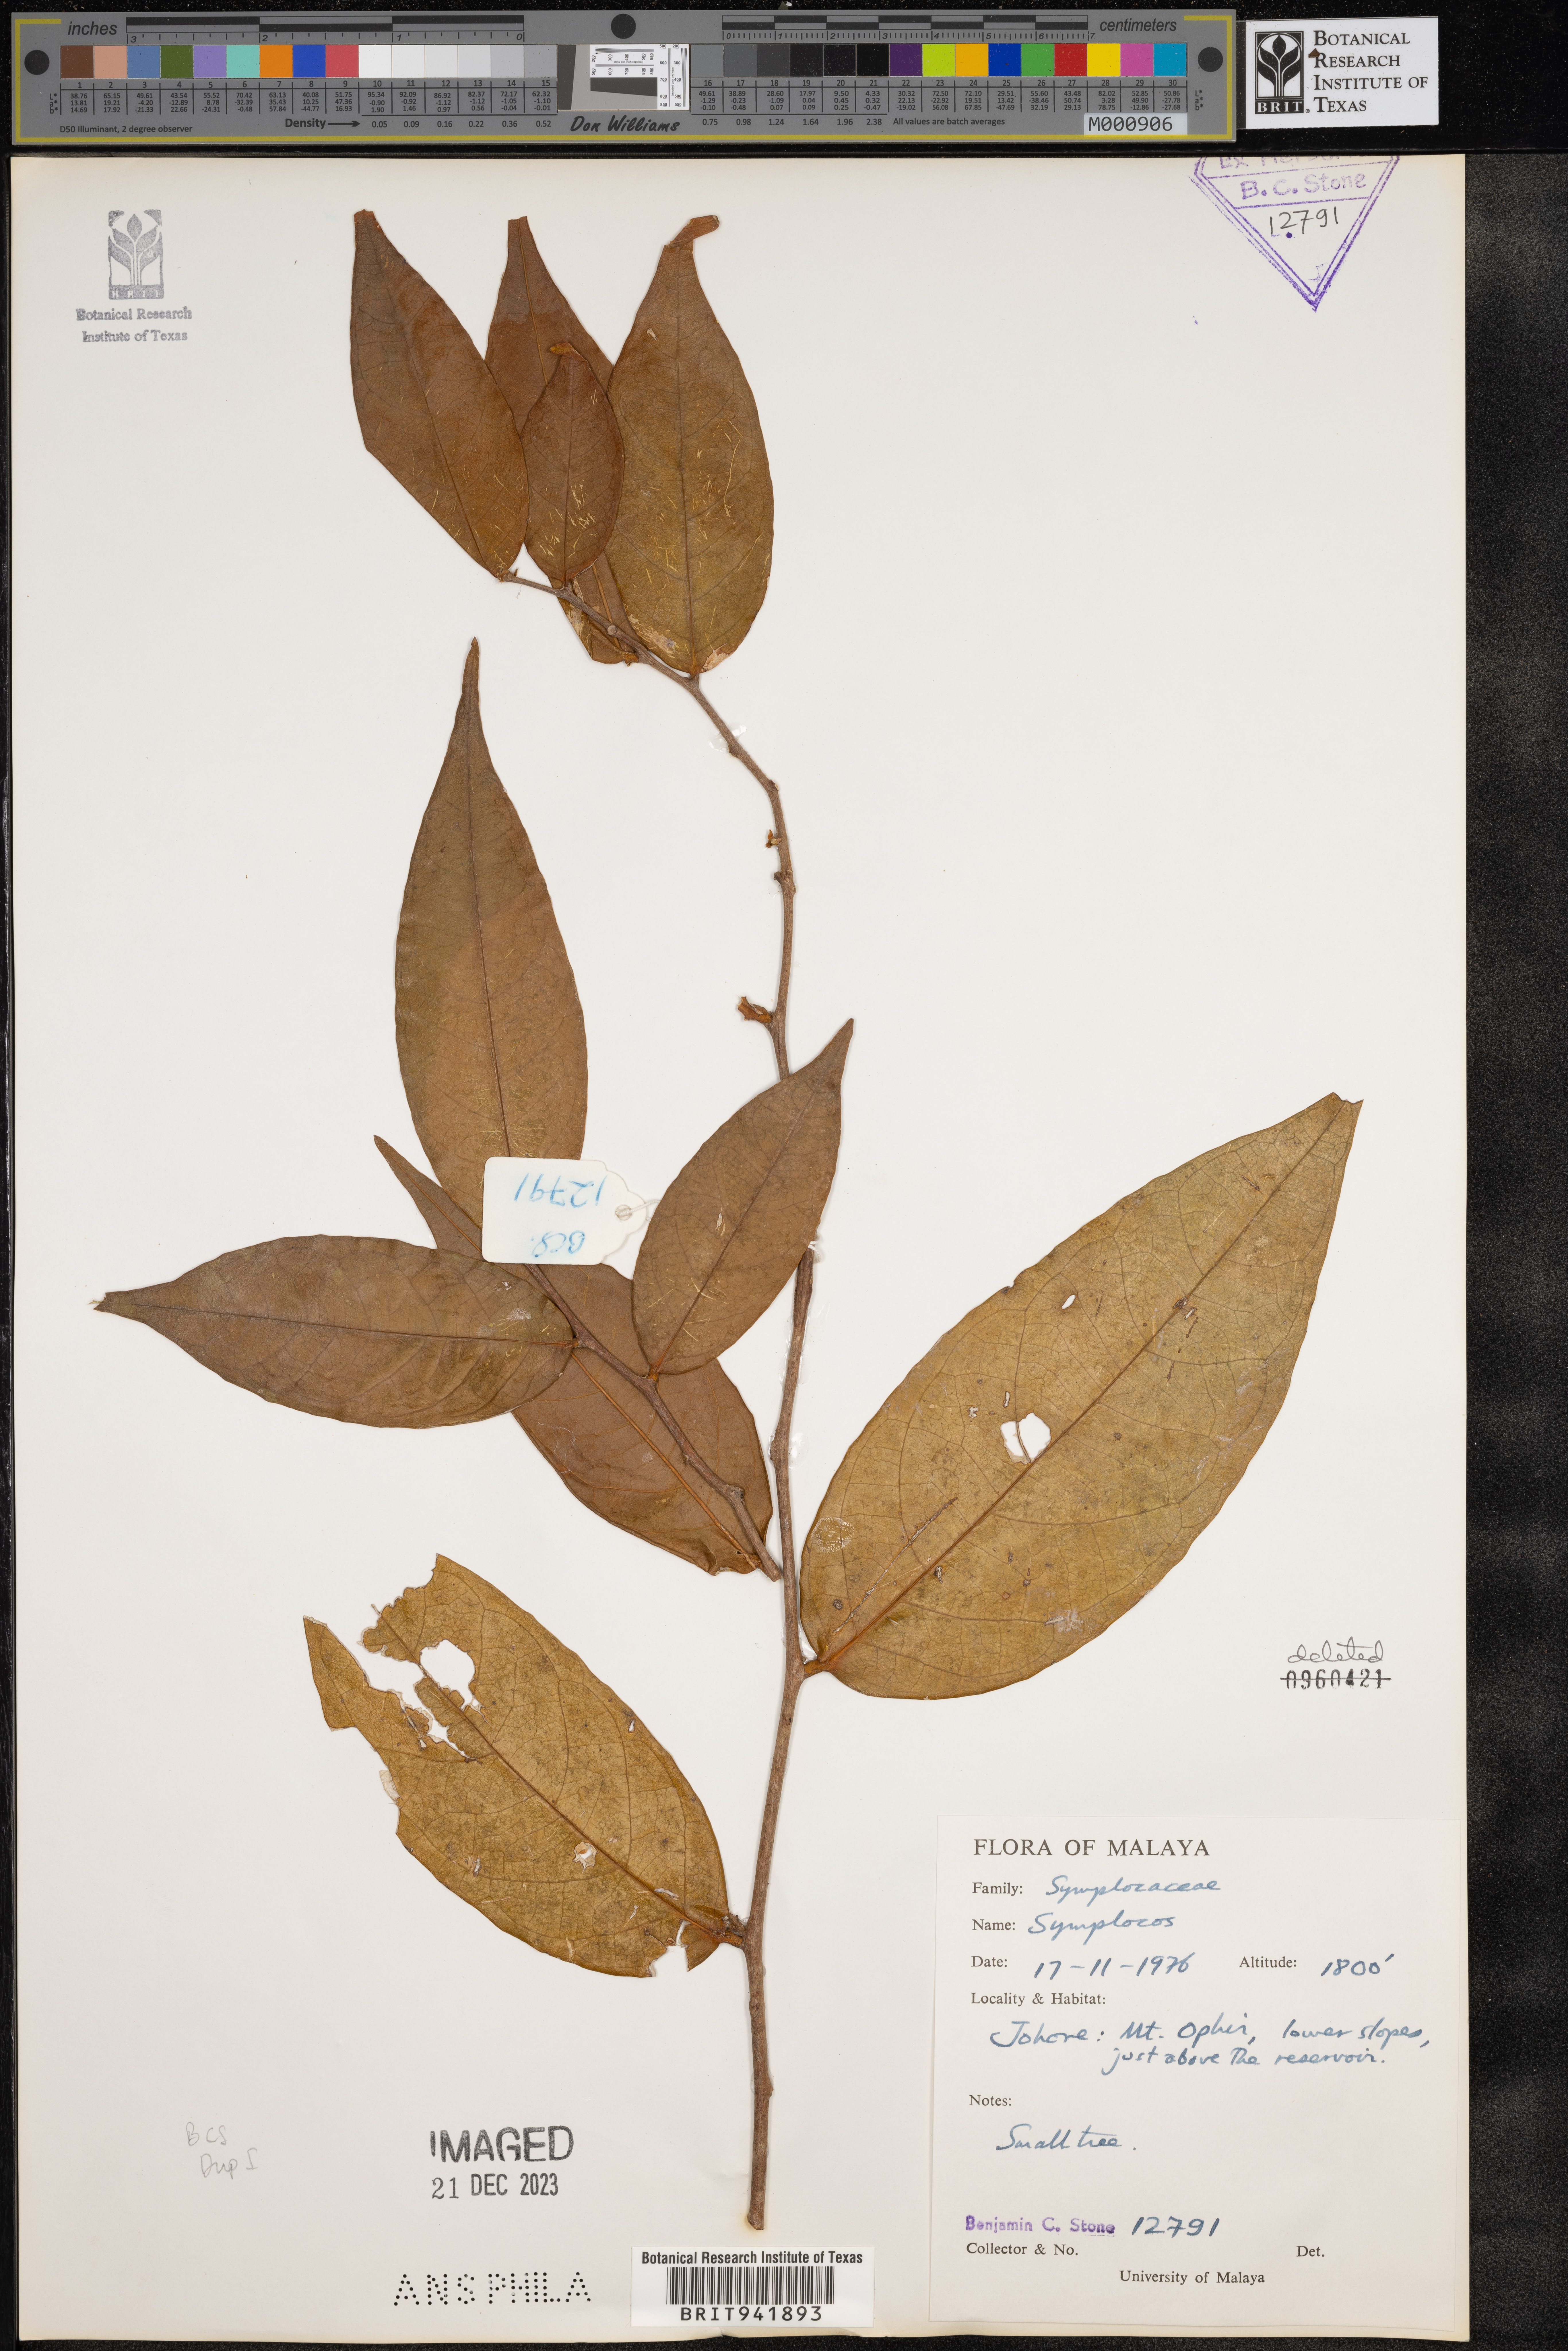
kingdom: Plantae
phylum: Tracheophyta
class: Magnoliopsida
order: Ericales
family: Symplocaceae
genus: Symplocos
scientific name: Symplocos
